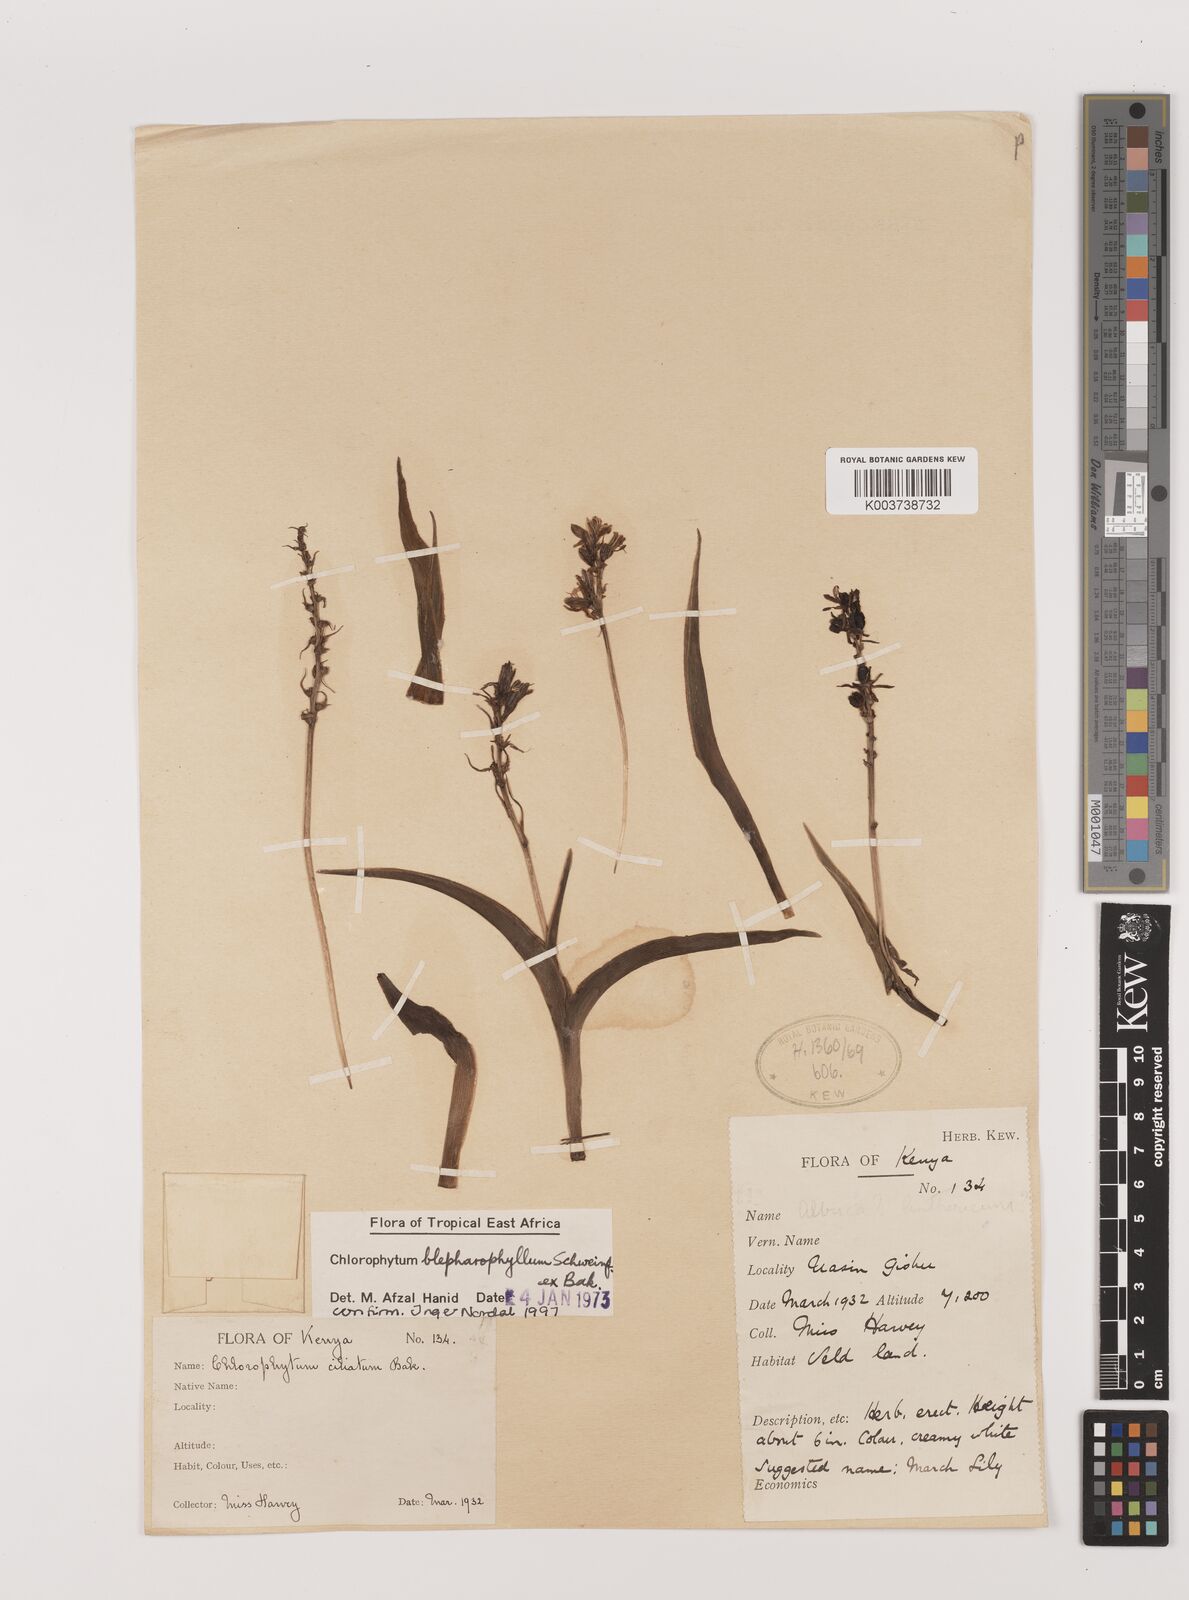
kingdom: Plantae
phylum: Tracheophyta
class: Liliopsida
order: Asparagales
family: Asparagaceae
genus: Chlorophytum
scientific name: Chlorophytum blepharophyllum
